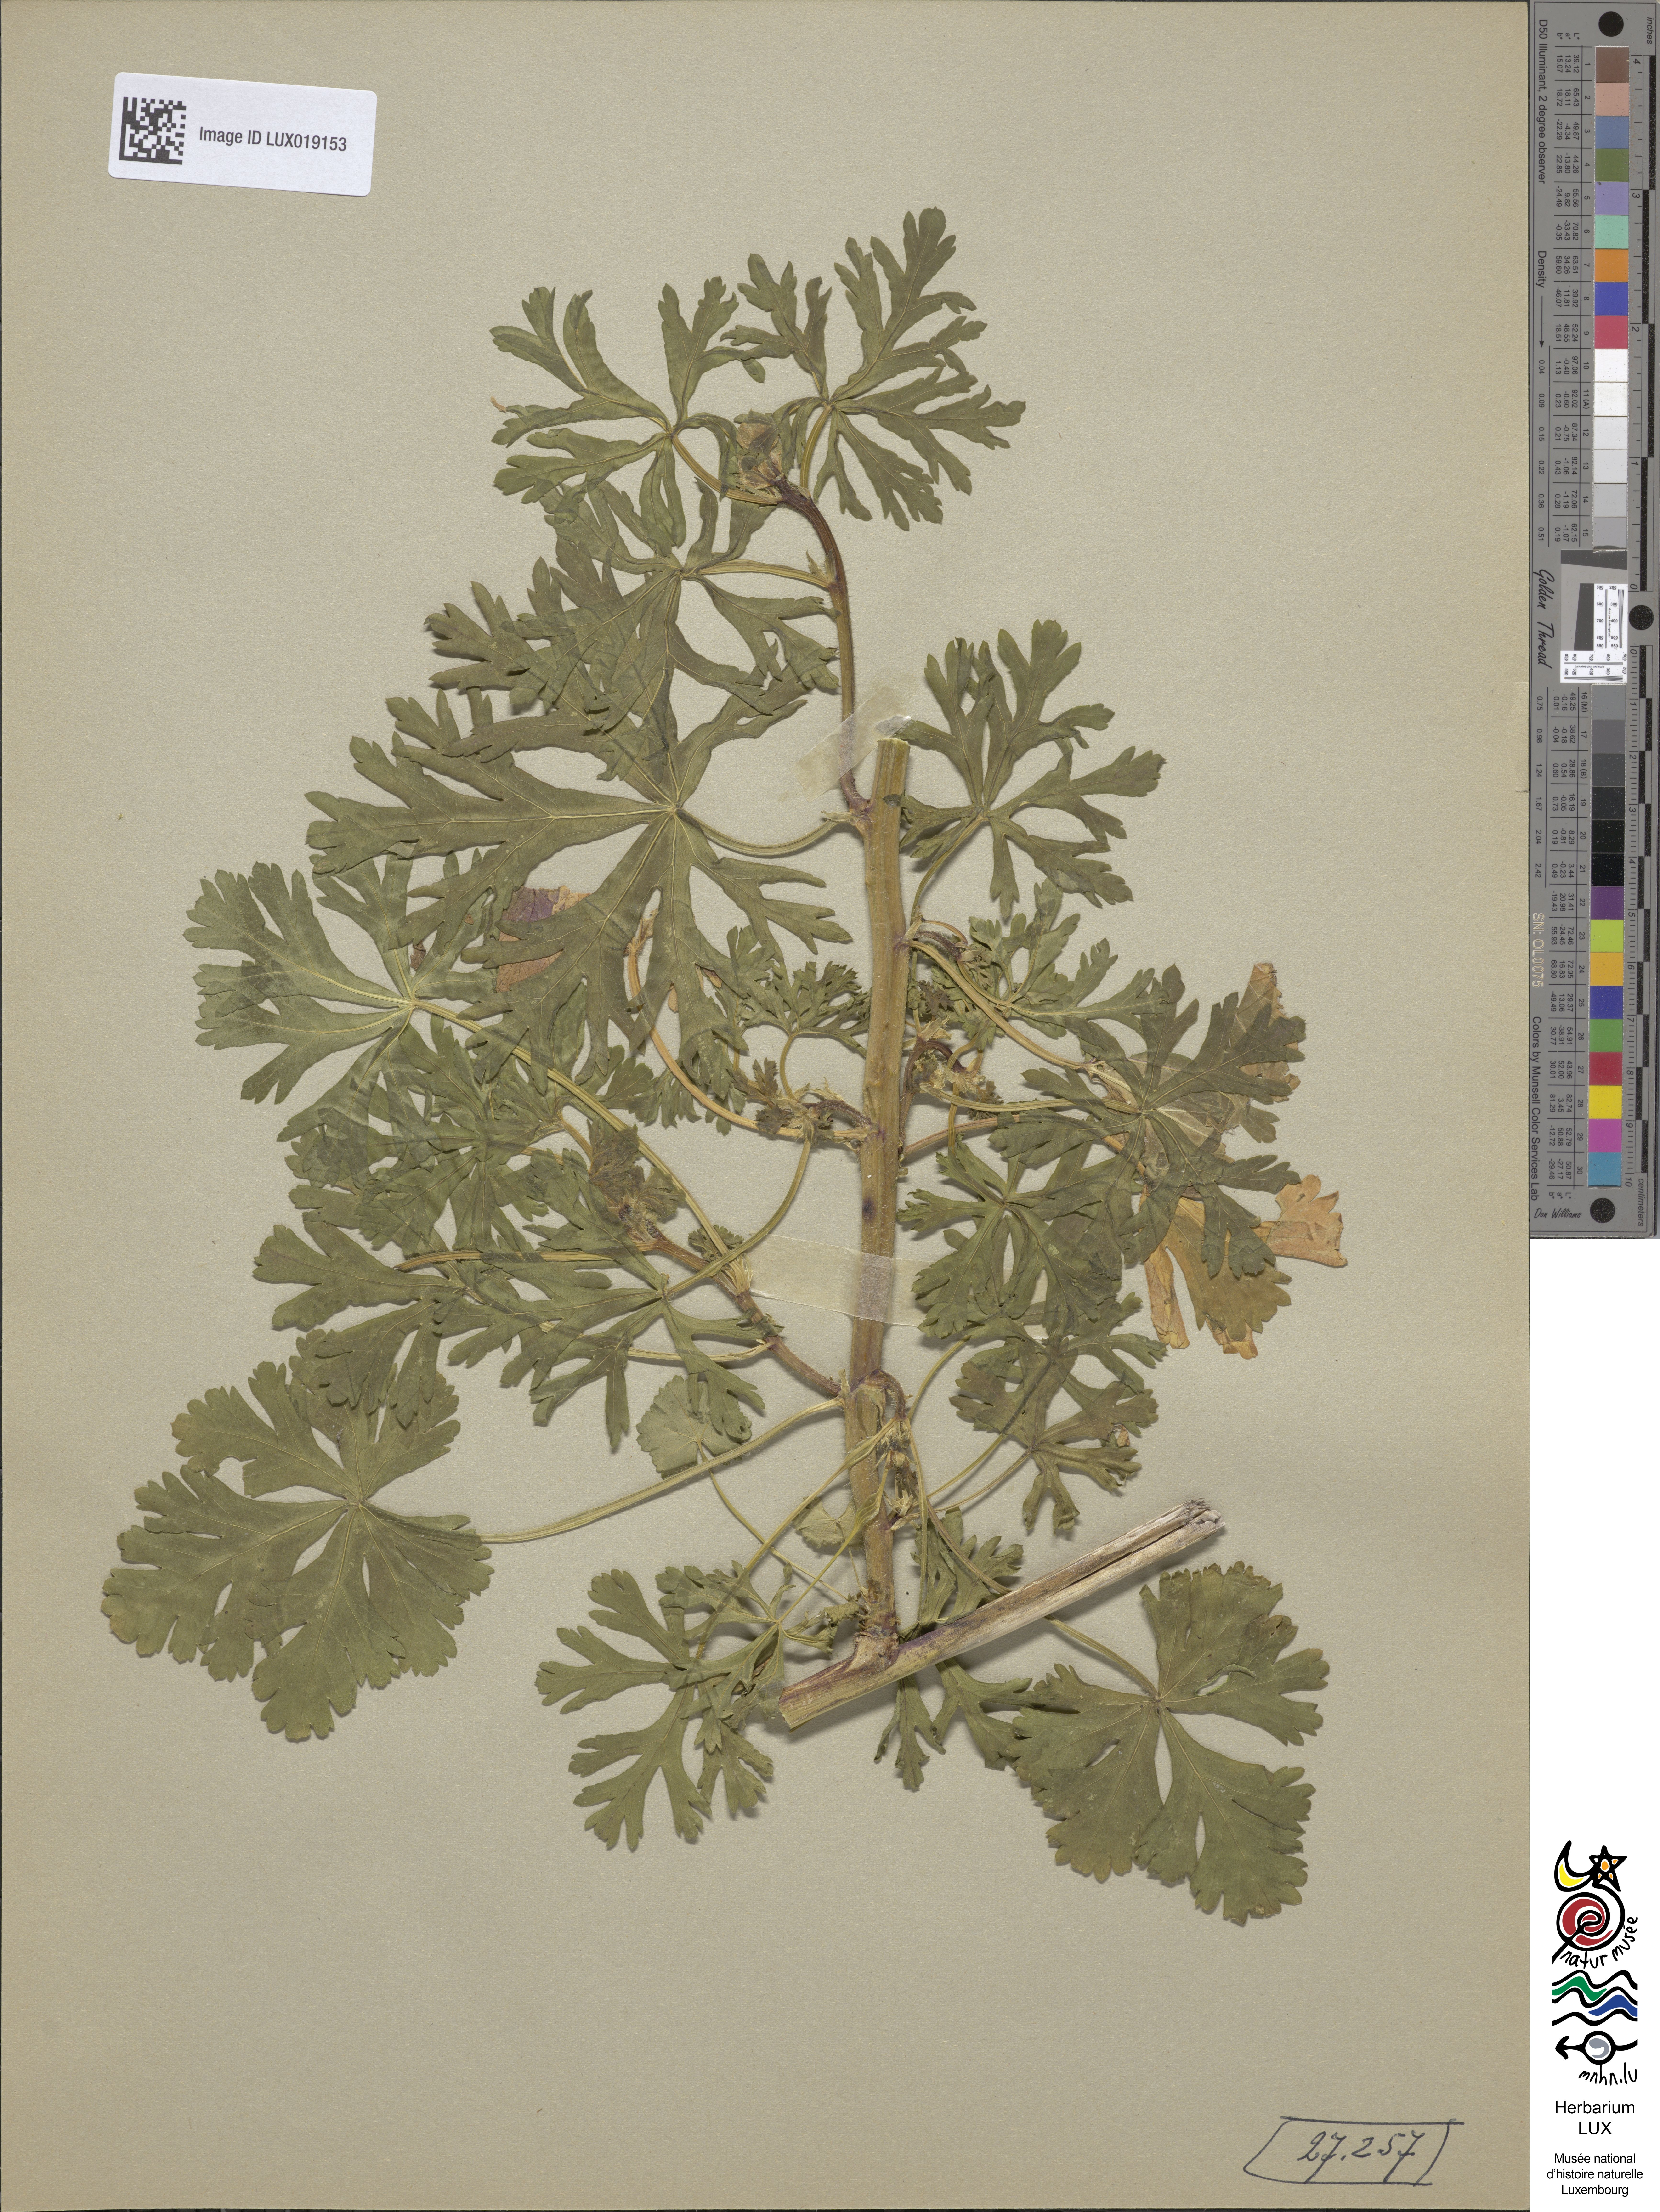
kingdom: Plantae
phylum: Tracheophyta
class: Magnoliopsida
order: Malvales
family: Malvaceae
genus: Malva
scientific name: Malva moschata
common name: Musk mallow
